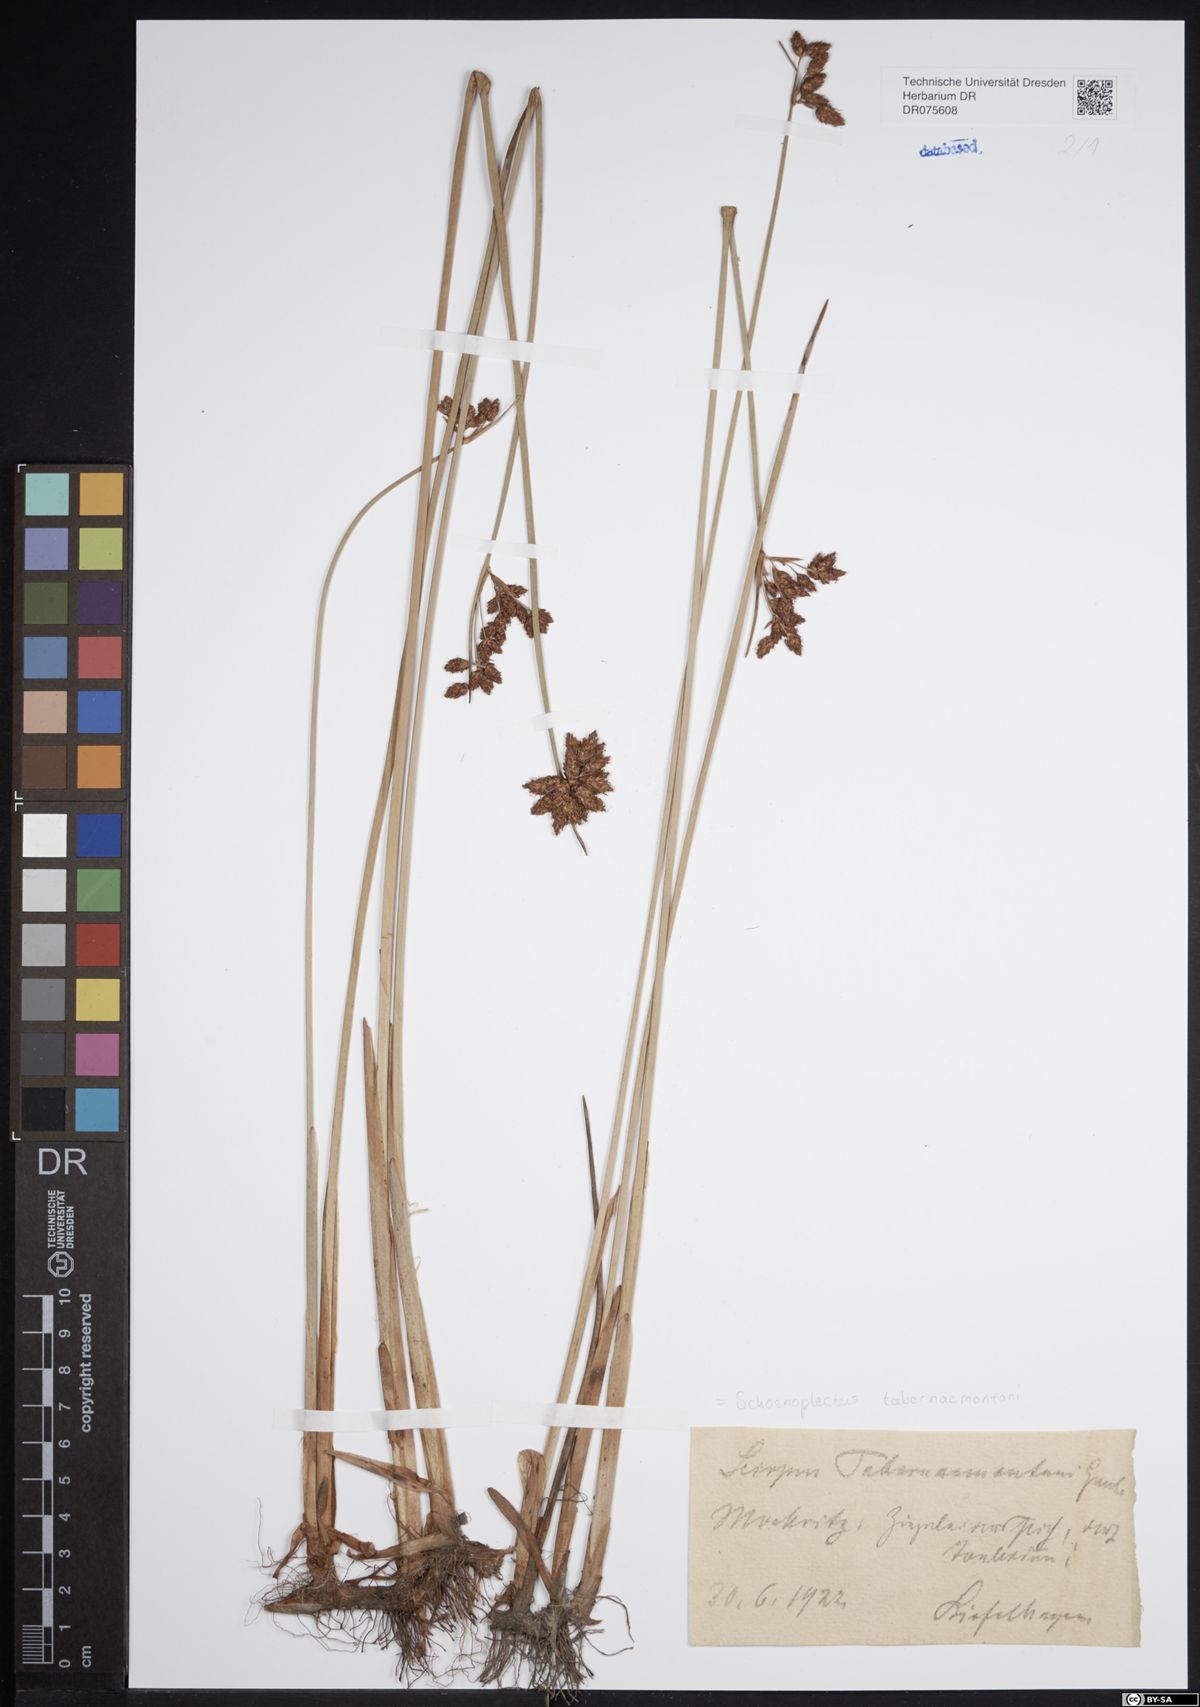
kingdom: Plantae
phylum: Tracheophyta
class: Liliopsida
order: Poales
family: Cyperaceae
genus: Schoenoplectus
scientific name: Schoenoplectus tabernaemontani
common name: Grey club-rush
